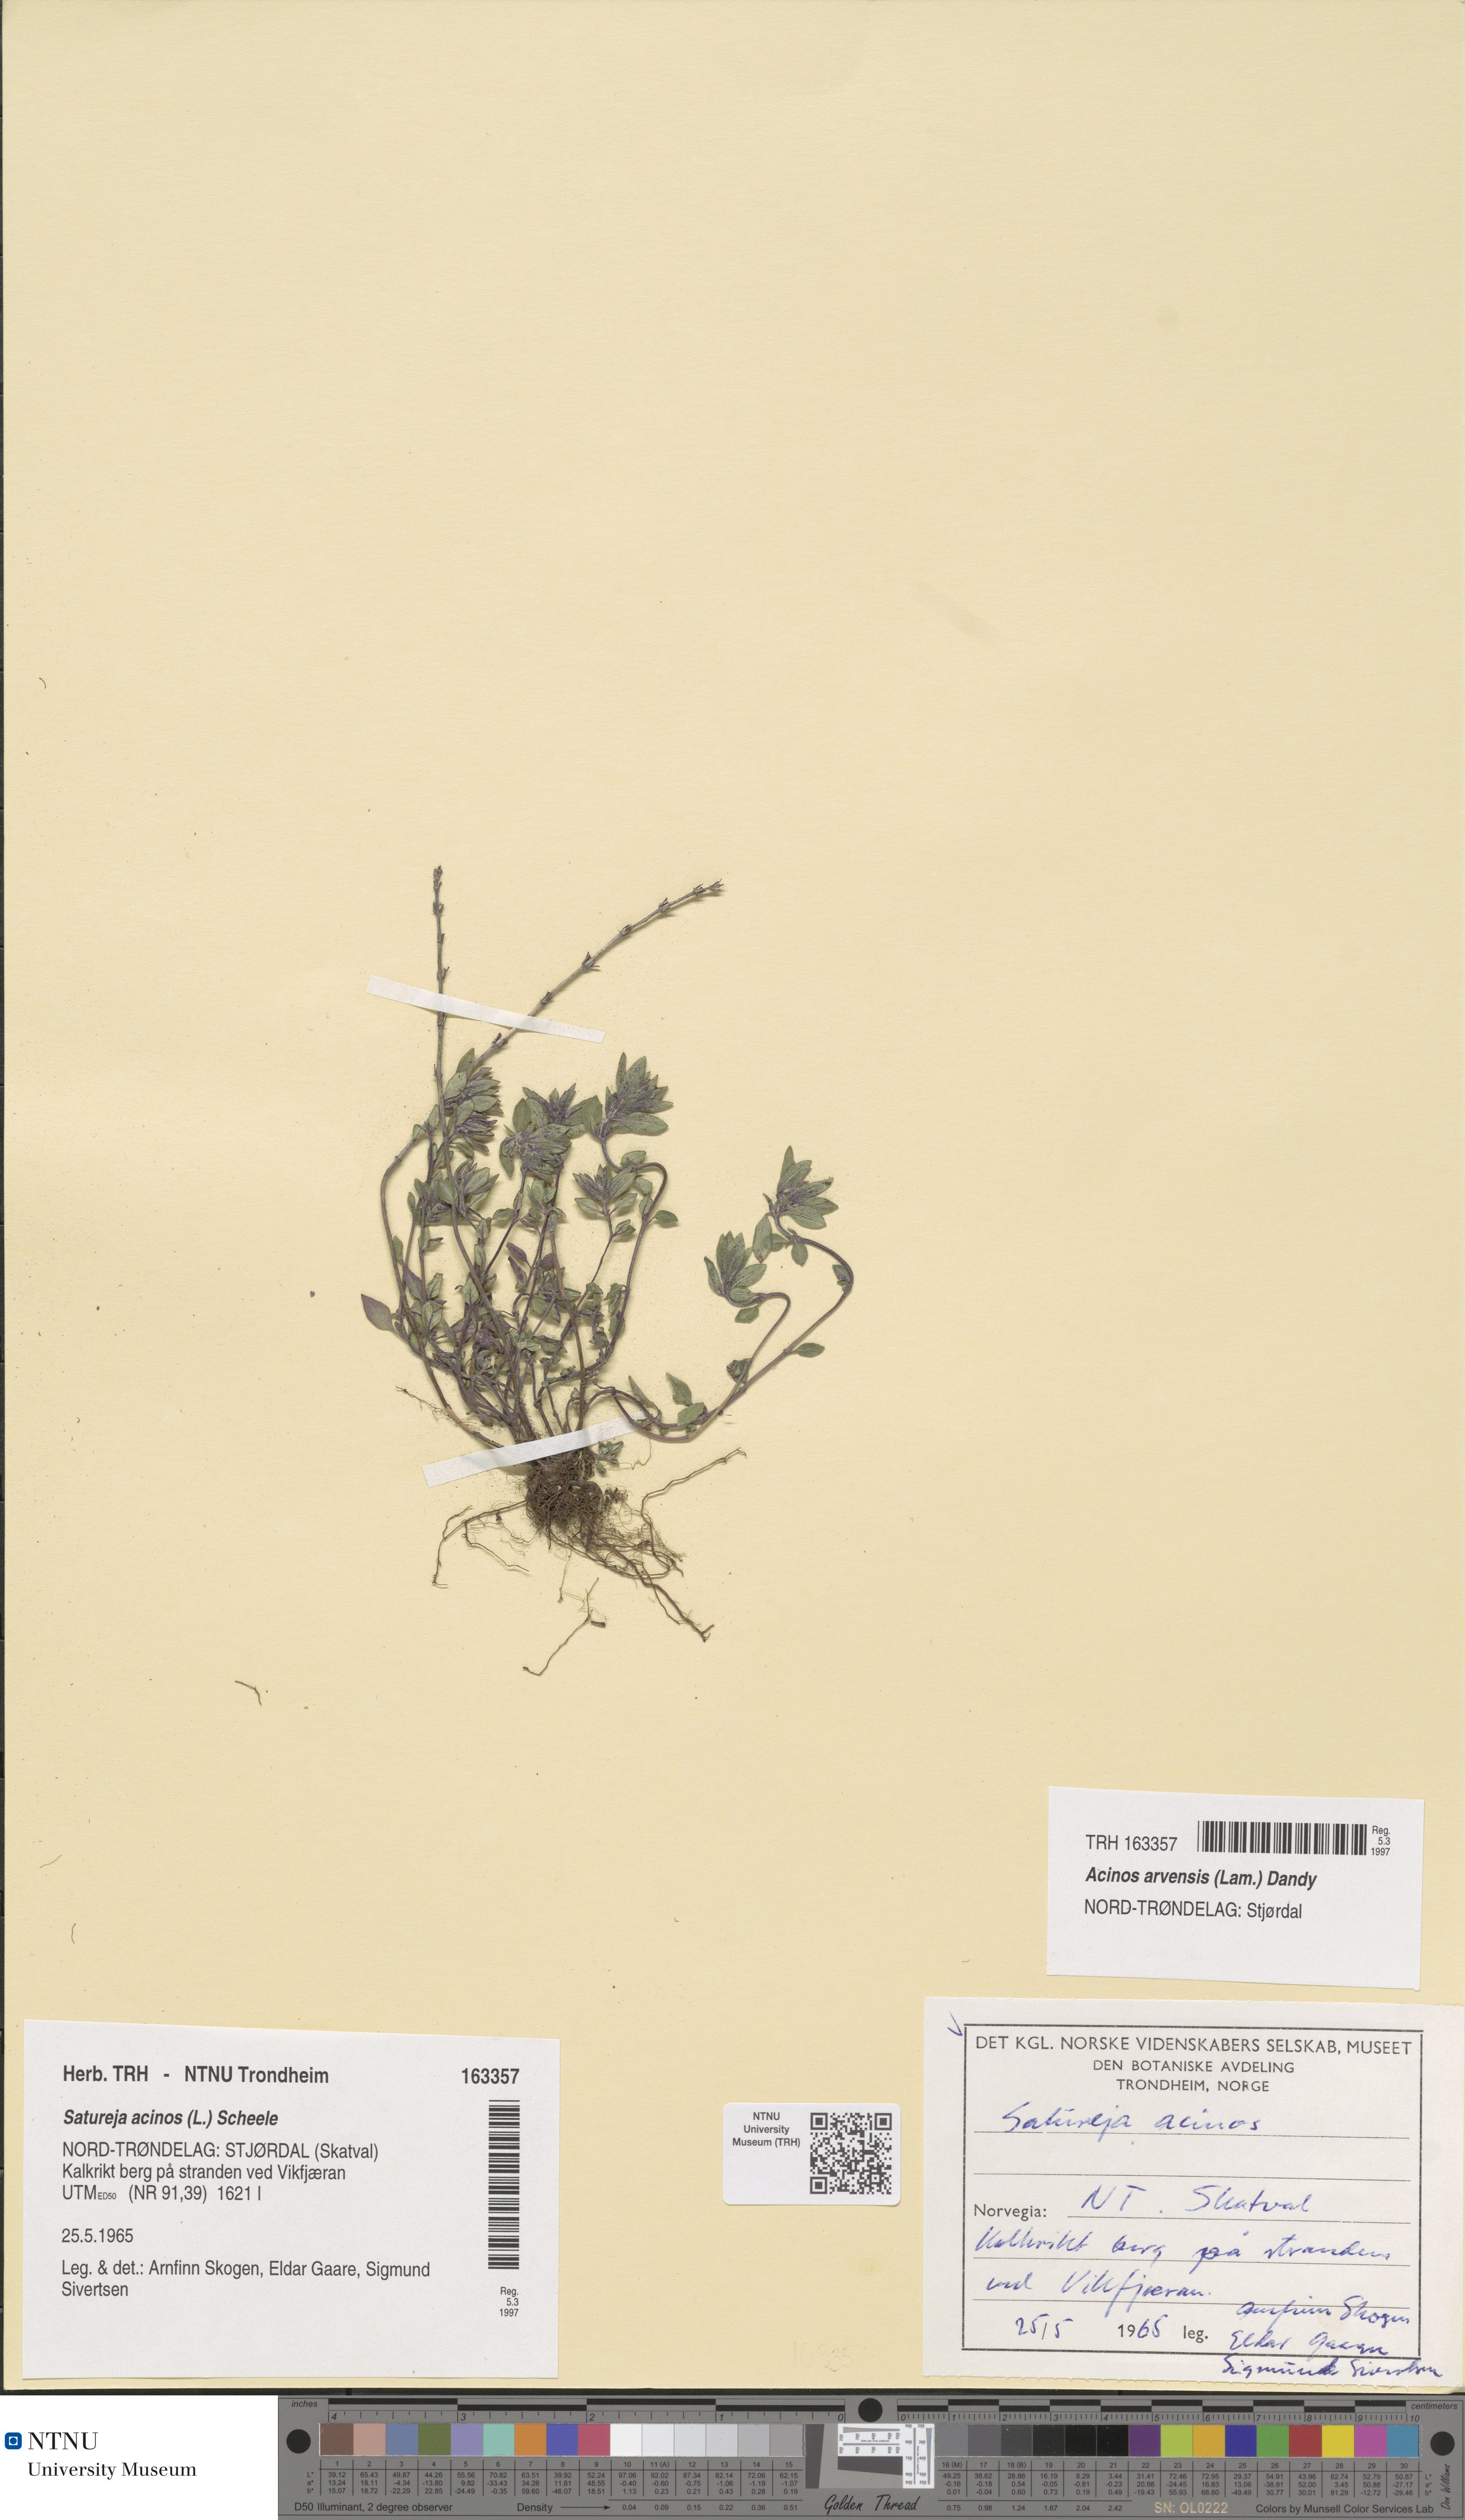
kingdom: Plantae
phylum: Tracheophyta
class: Magnoliopsida
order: Lamiales
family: Lamiaceae
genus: Clinopodium
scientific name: Clinopodium acinos
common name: Basil thyme
